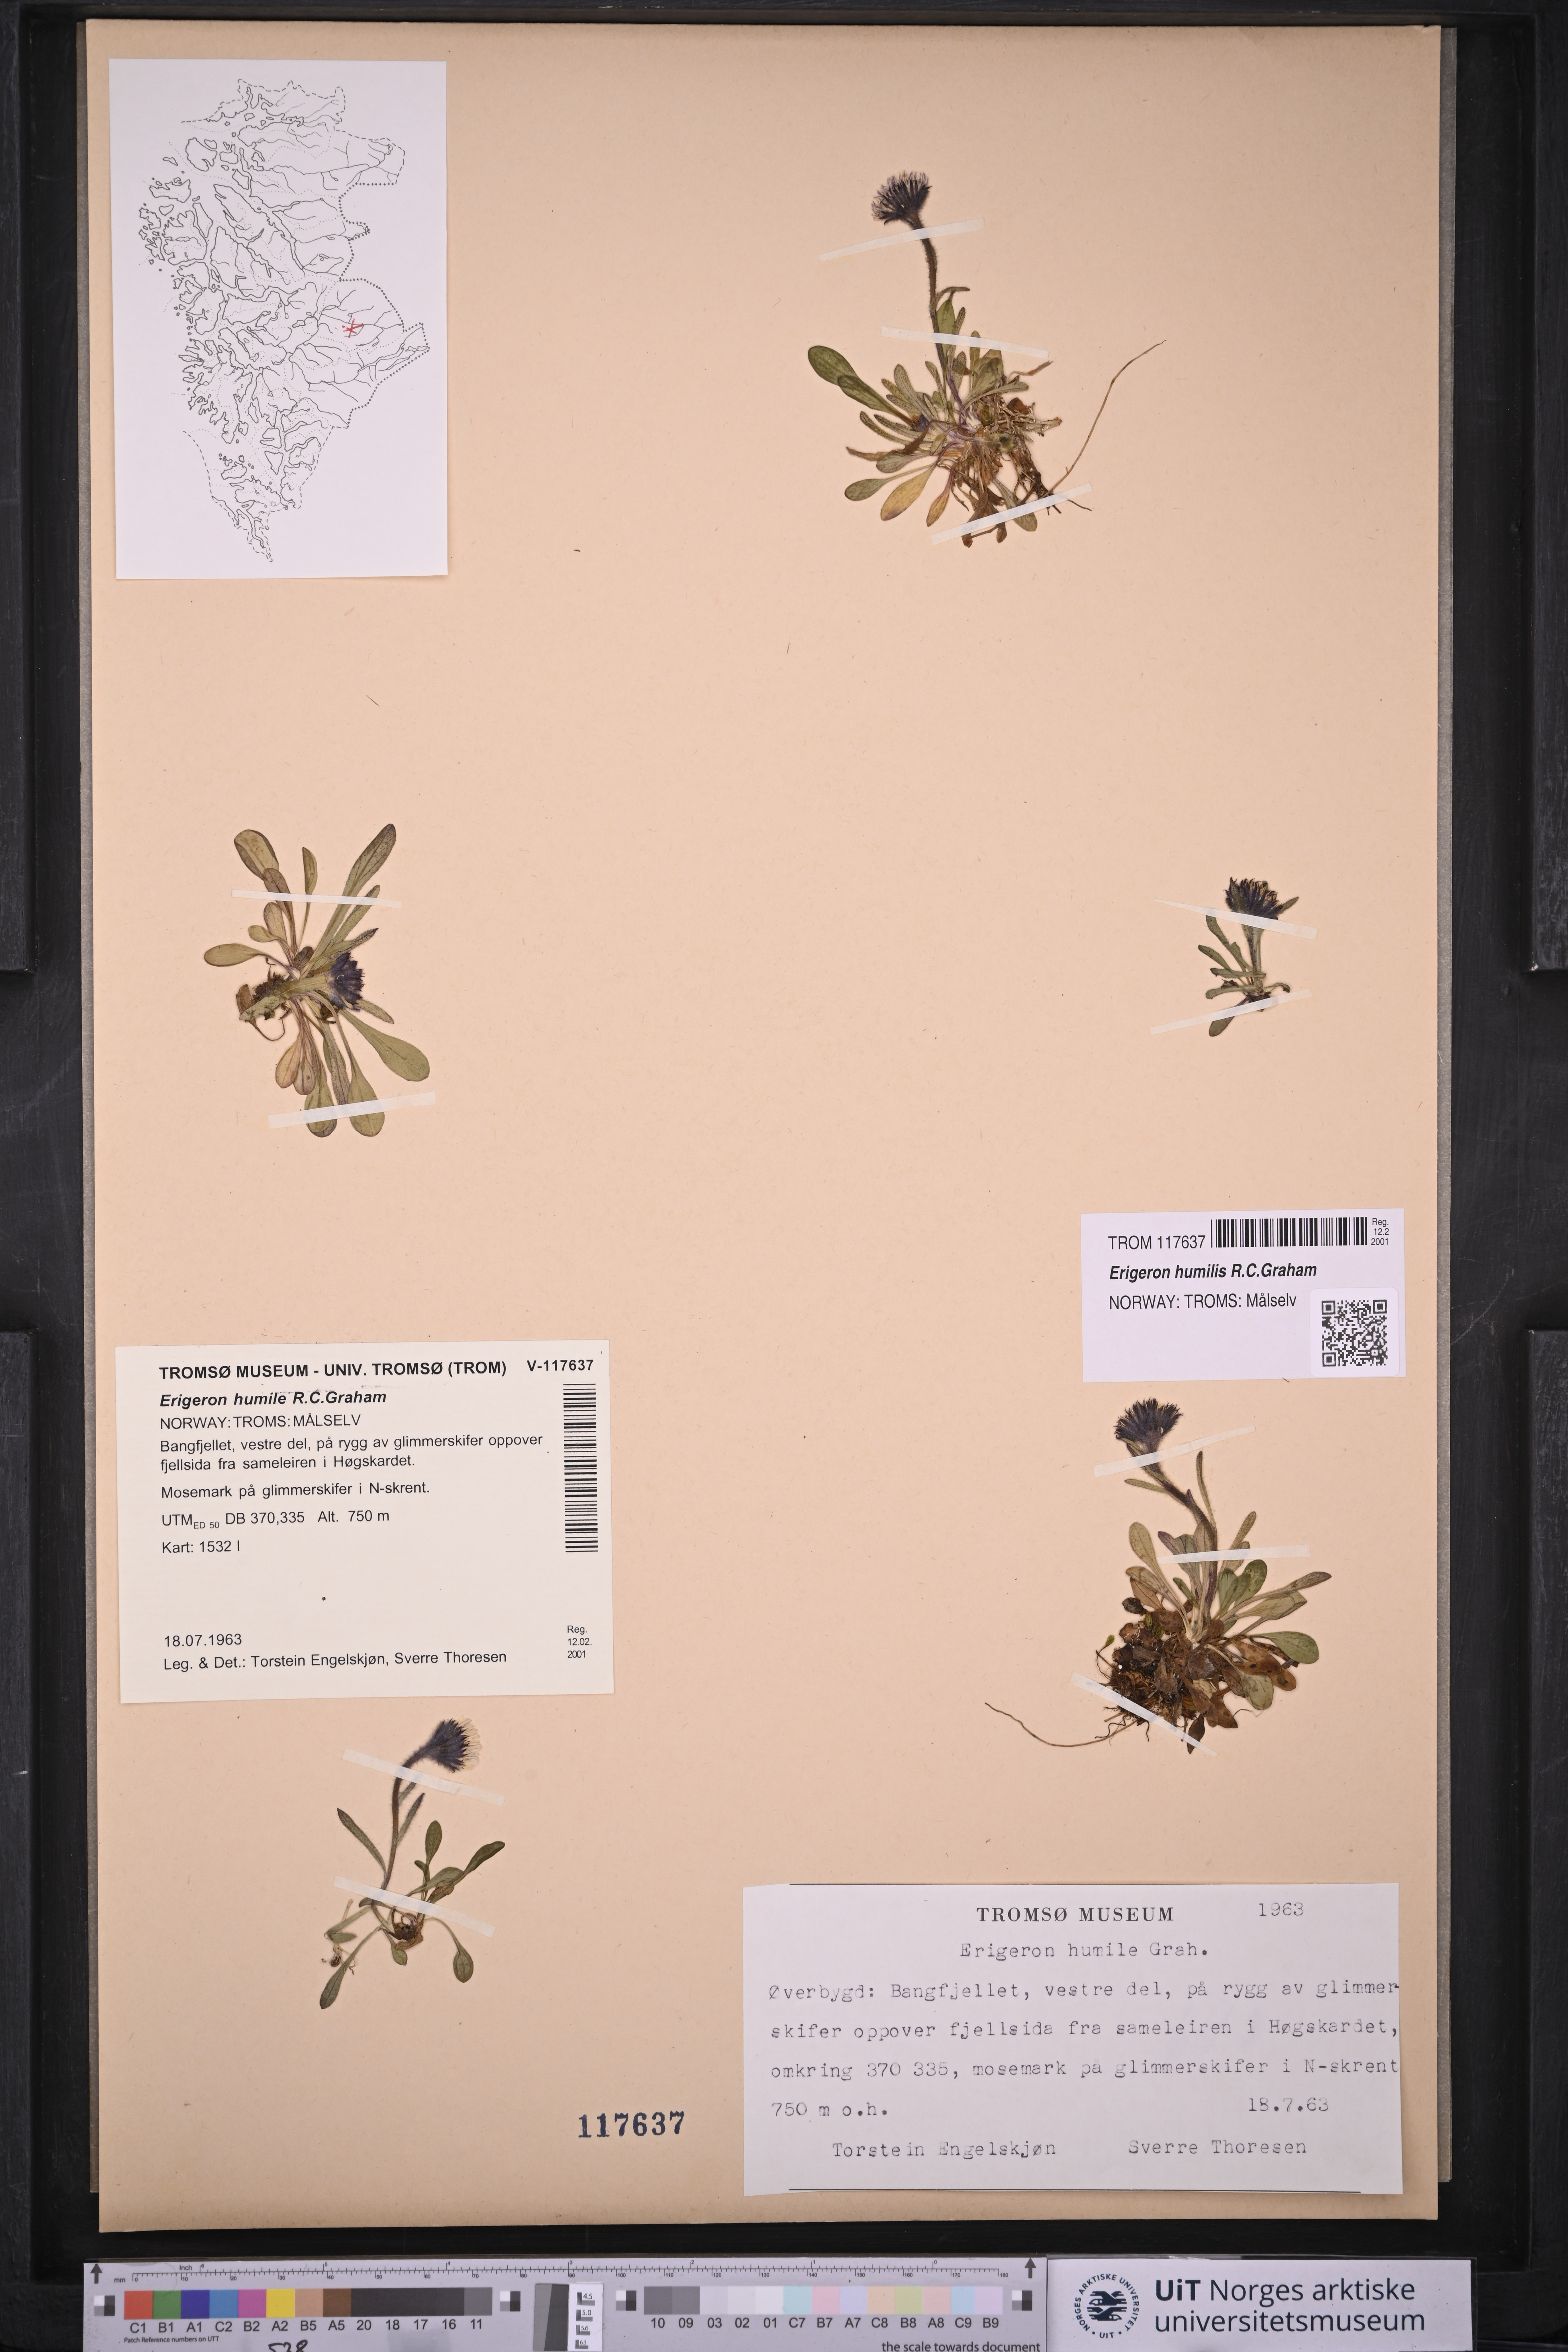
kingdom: Plantae
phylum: Tracheophyta
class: Magnoliopsida
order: Asterales
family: Asteraceae
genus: Erigeron
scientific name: Erigeron humilis
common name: Arctic-alpine fleabane
